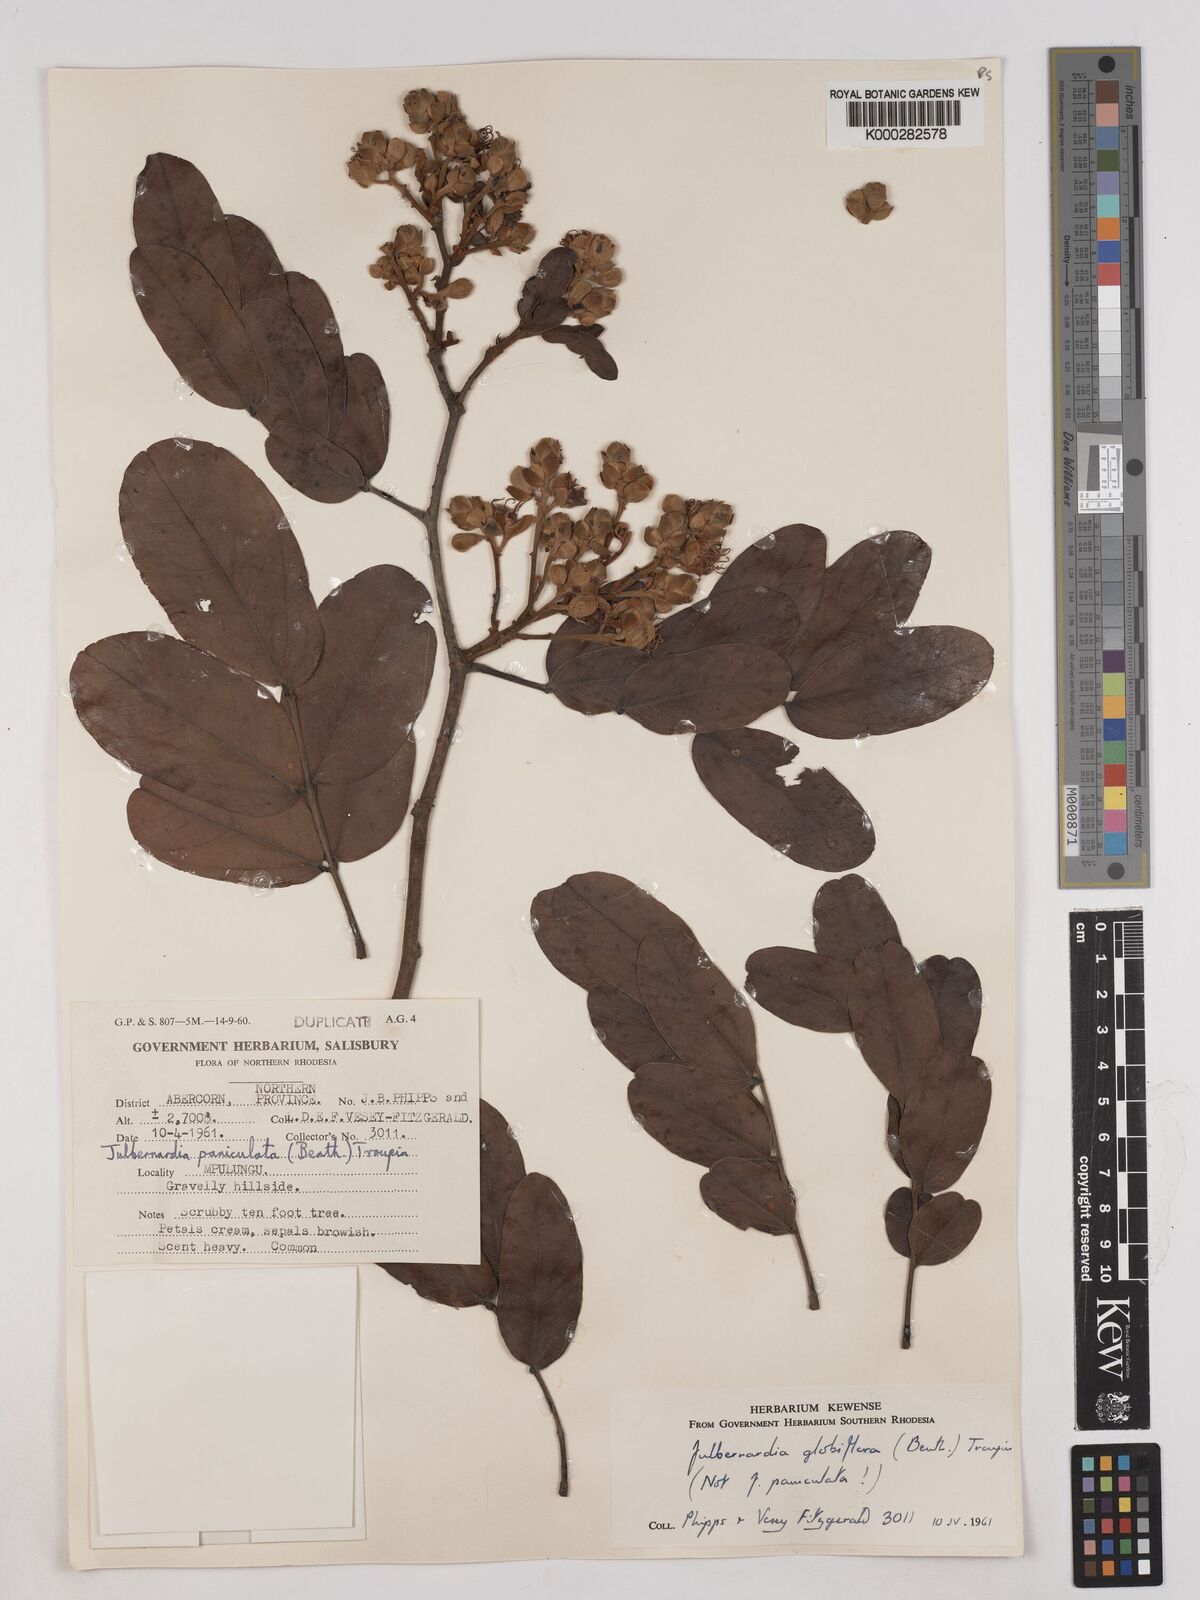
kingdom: Plantae
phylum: Tracheophyta
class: Magnoliopsida
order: Fabales
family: Fabaceae
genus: Julbernardia
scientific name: Julbernardia globiflora
